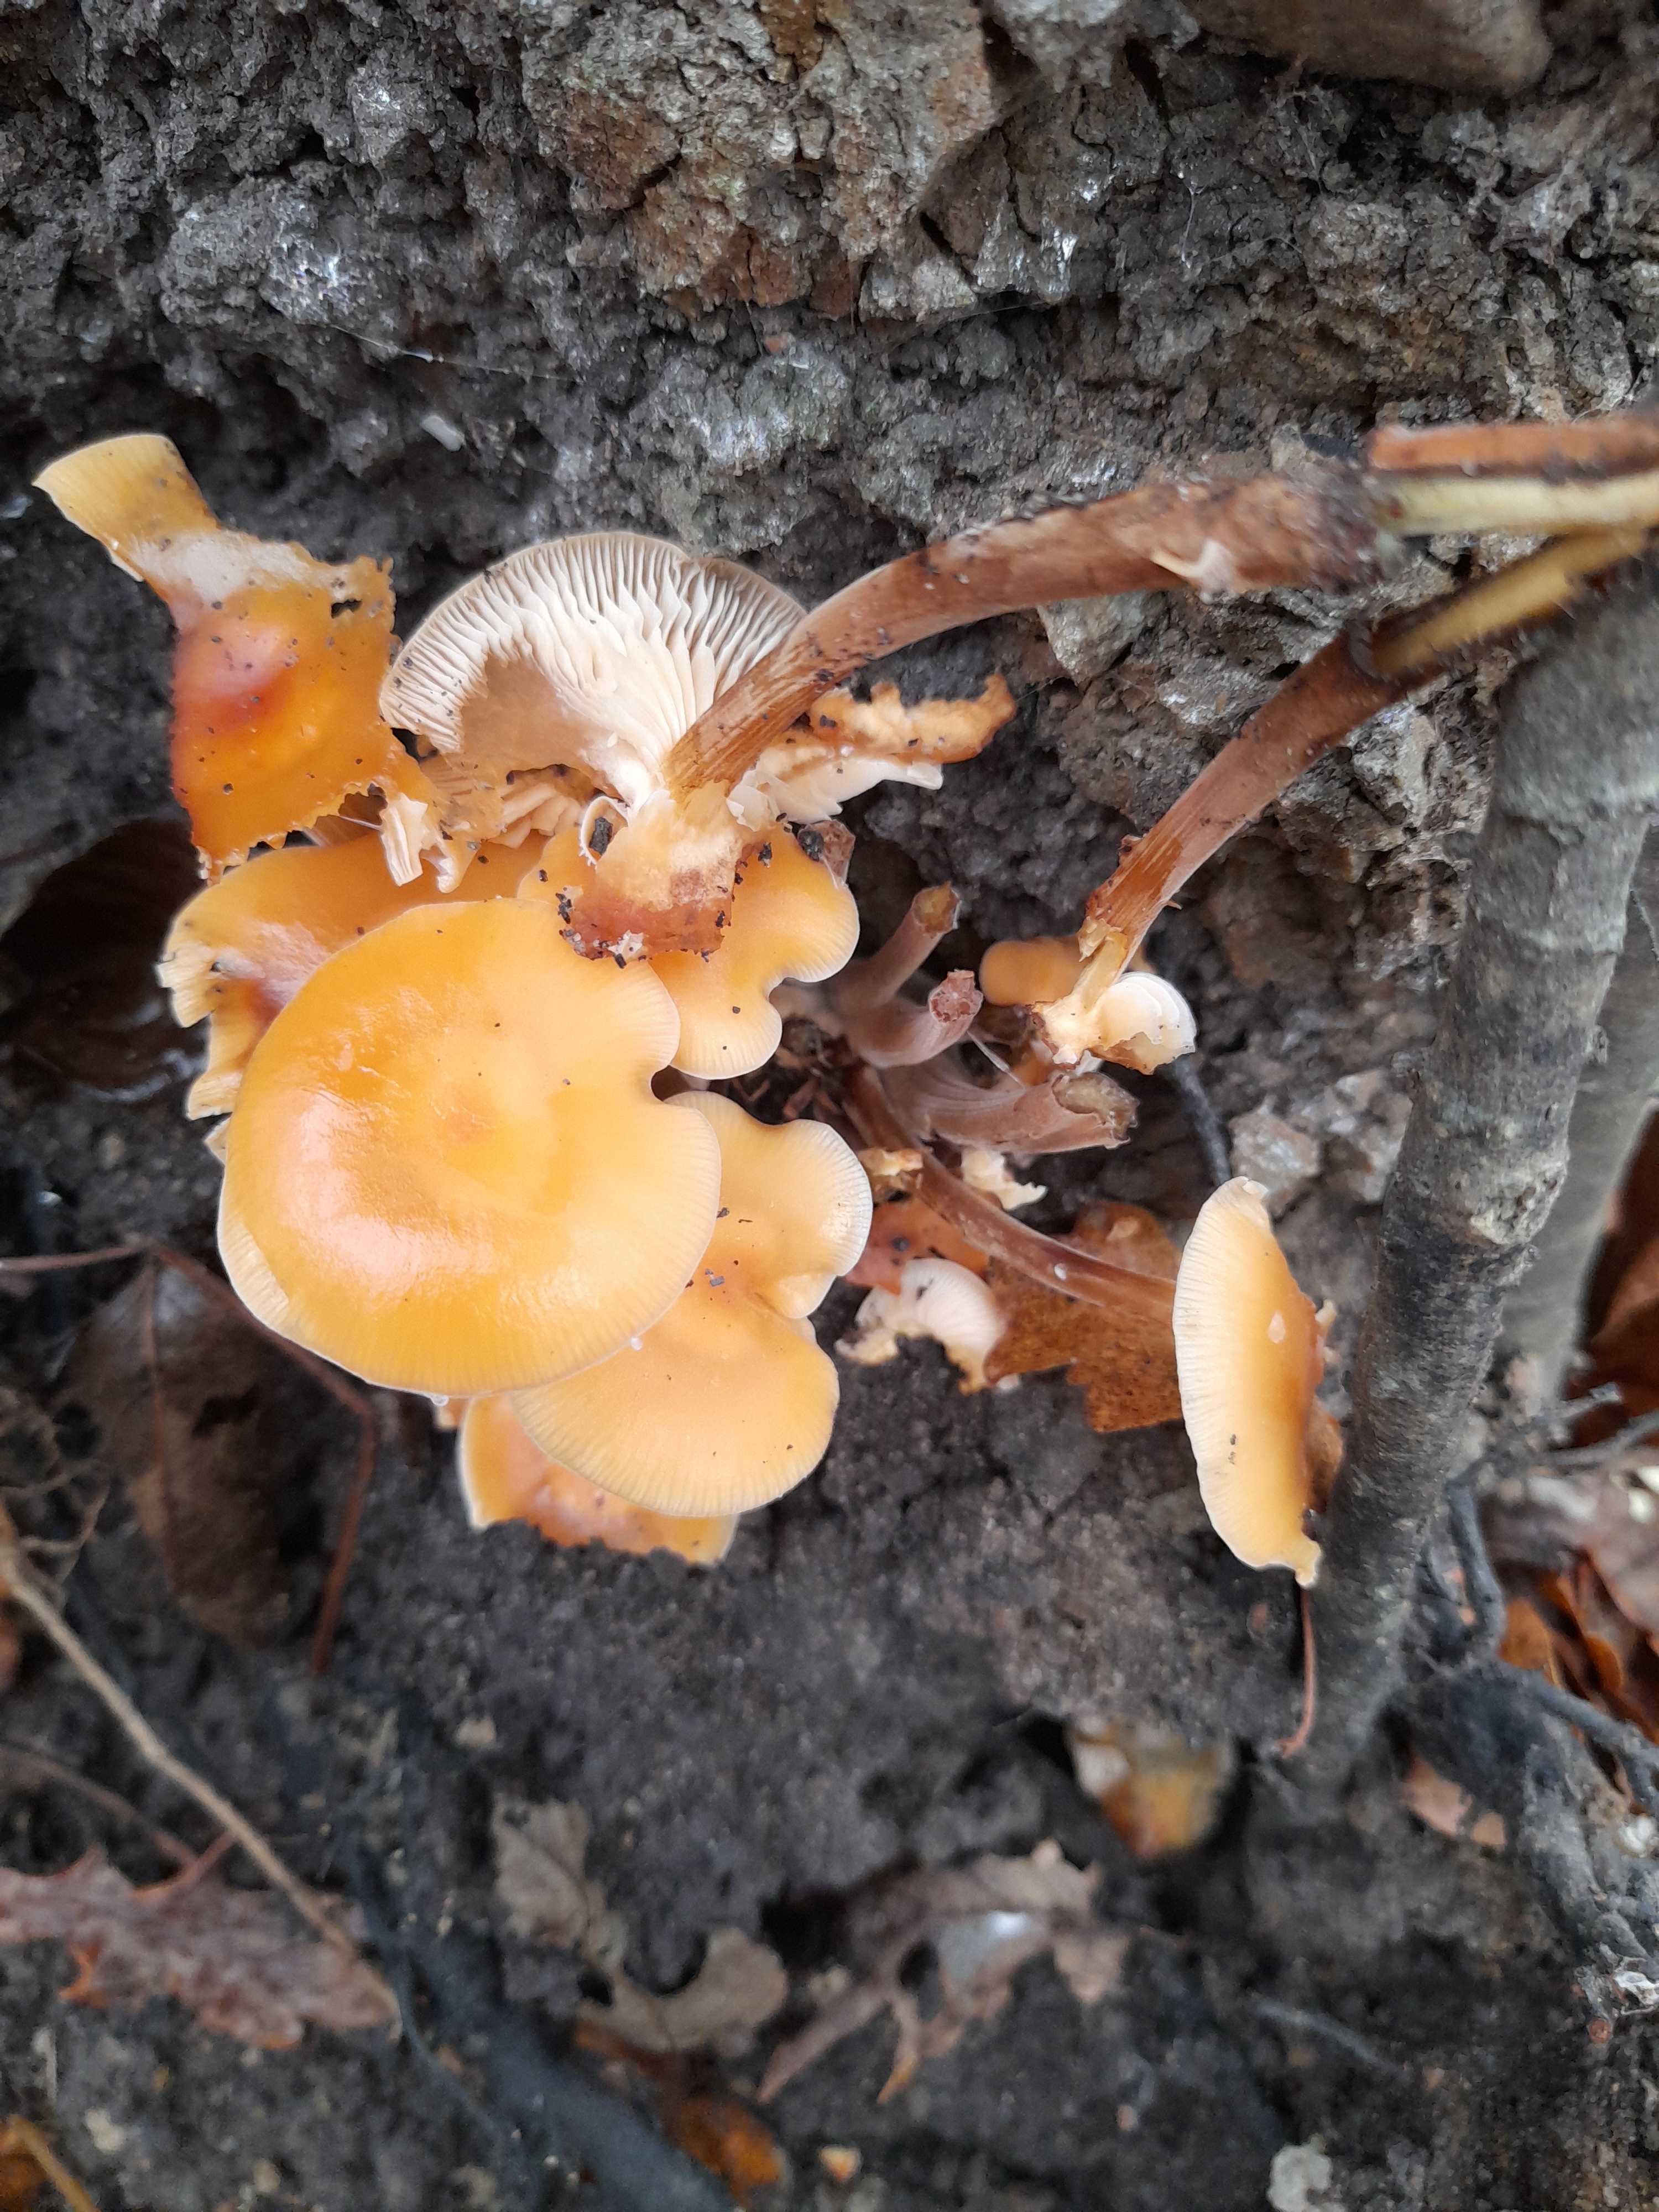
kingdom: Fungi
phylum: Basidiomycota
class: Agaricomycetes
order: Agaricales
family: Physalacriaceae
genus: Flammulina
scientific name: Flammulina velutipes
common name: gul fløjlsfod
